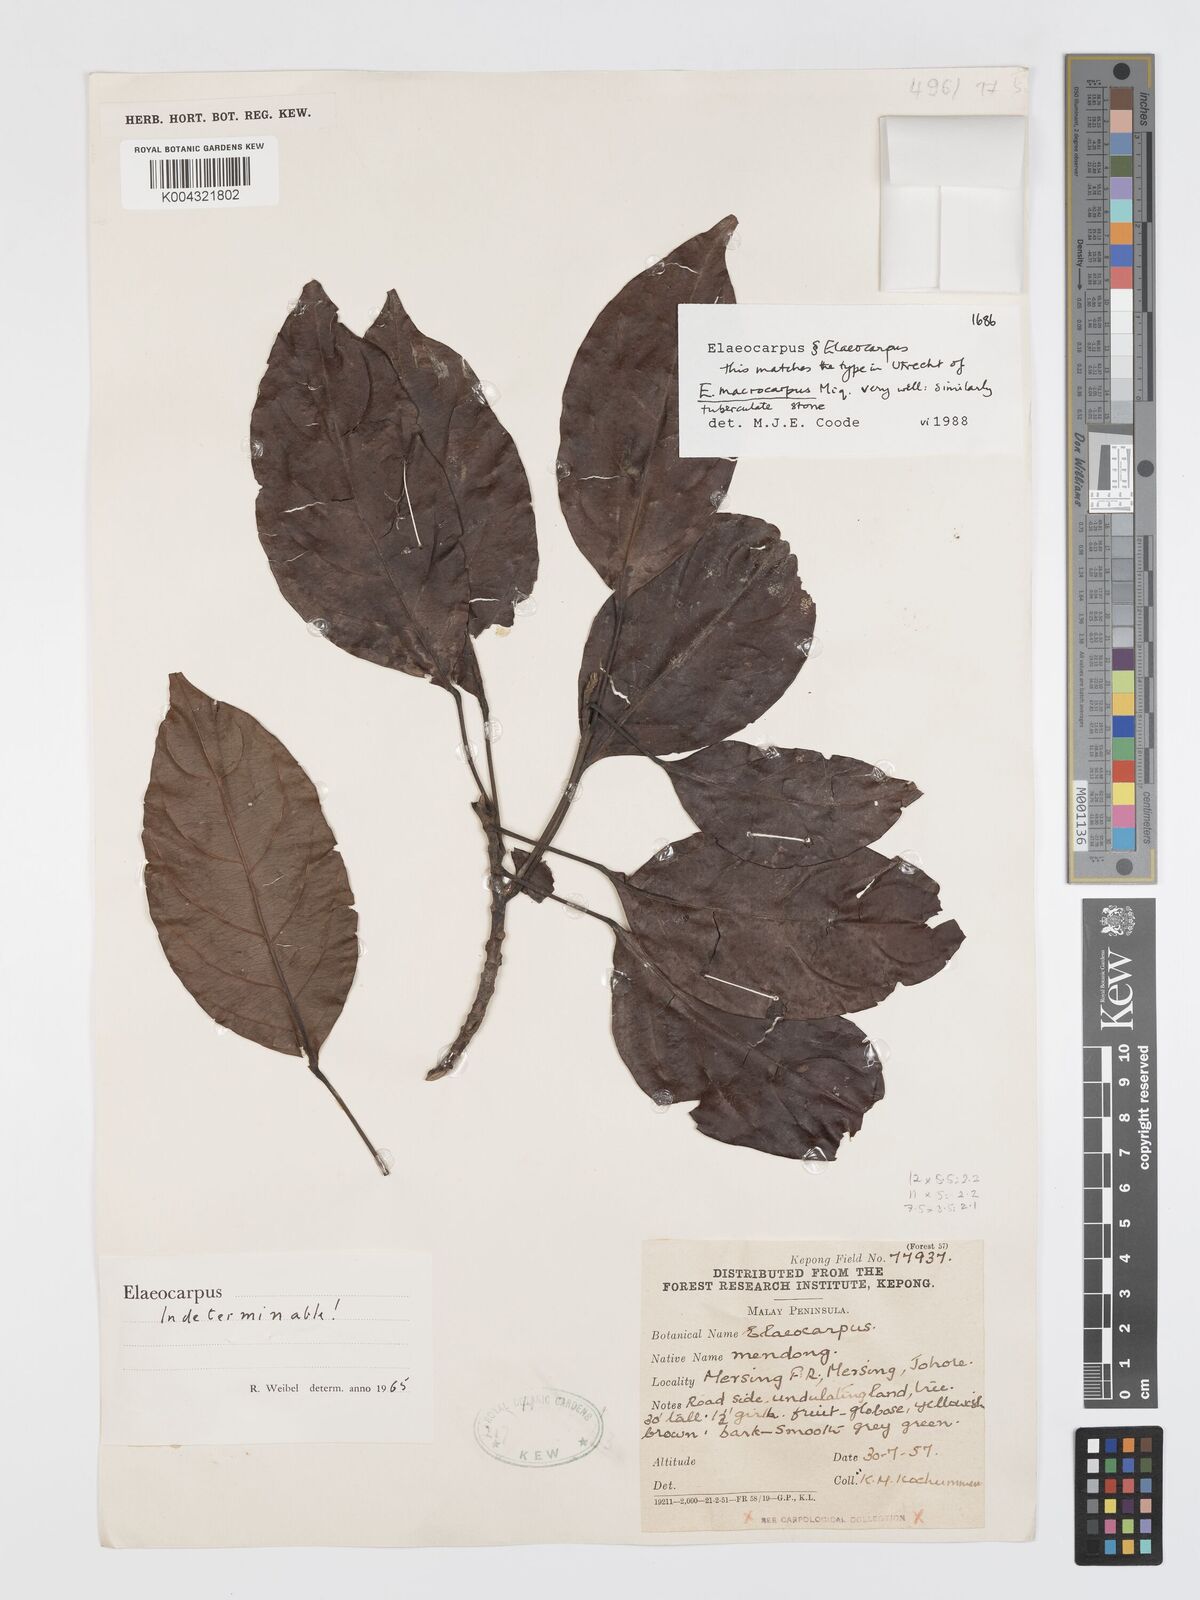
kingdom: Plantae
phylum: Tracheophyta
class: Magnoliopsida
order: Oxalidales
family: Elaeocarpaceae
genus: Elaeocarpus
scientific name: Elaeocarpus
